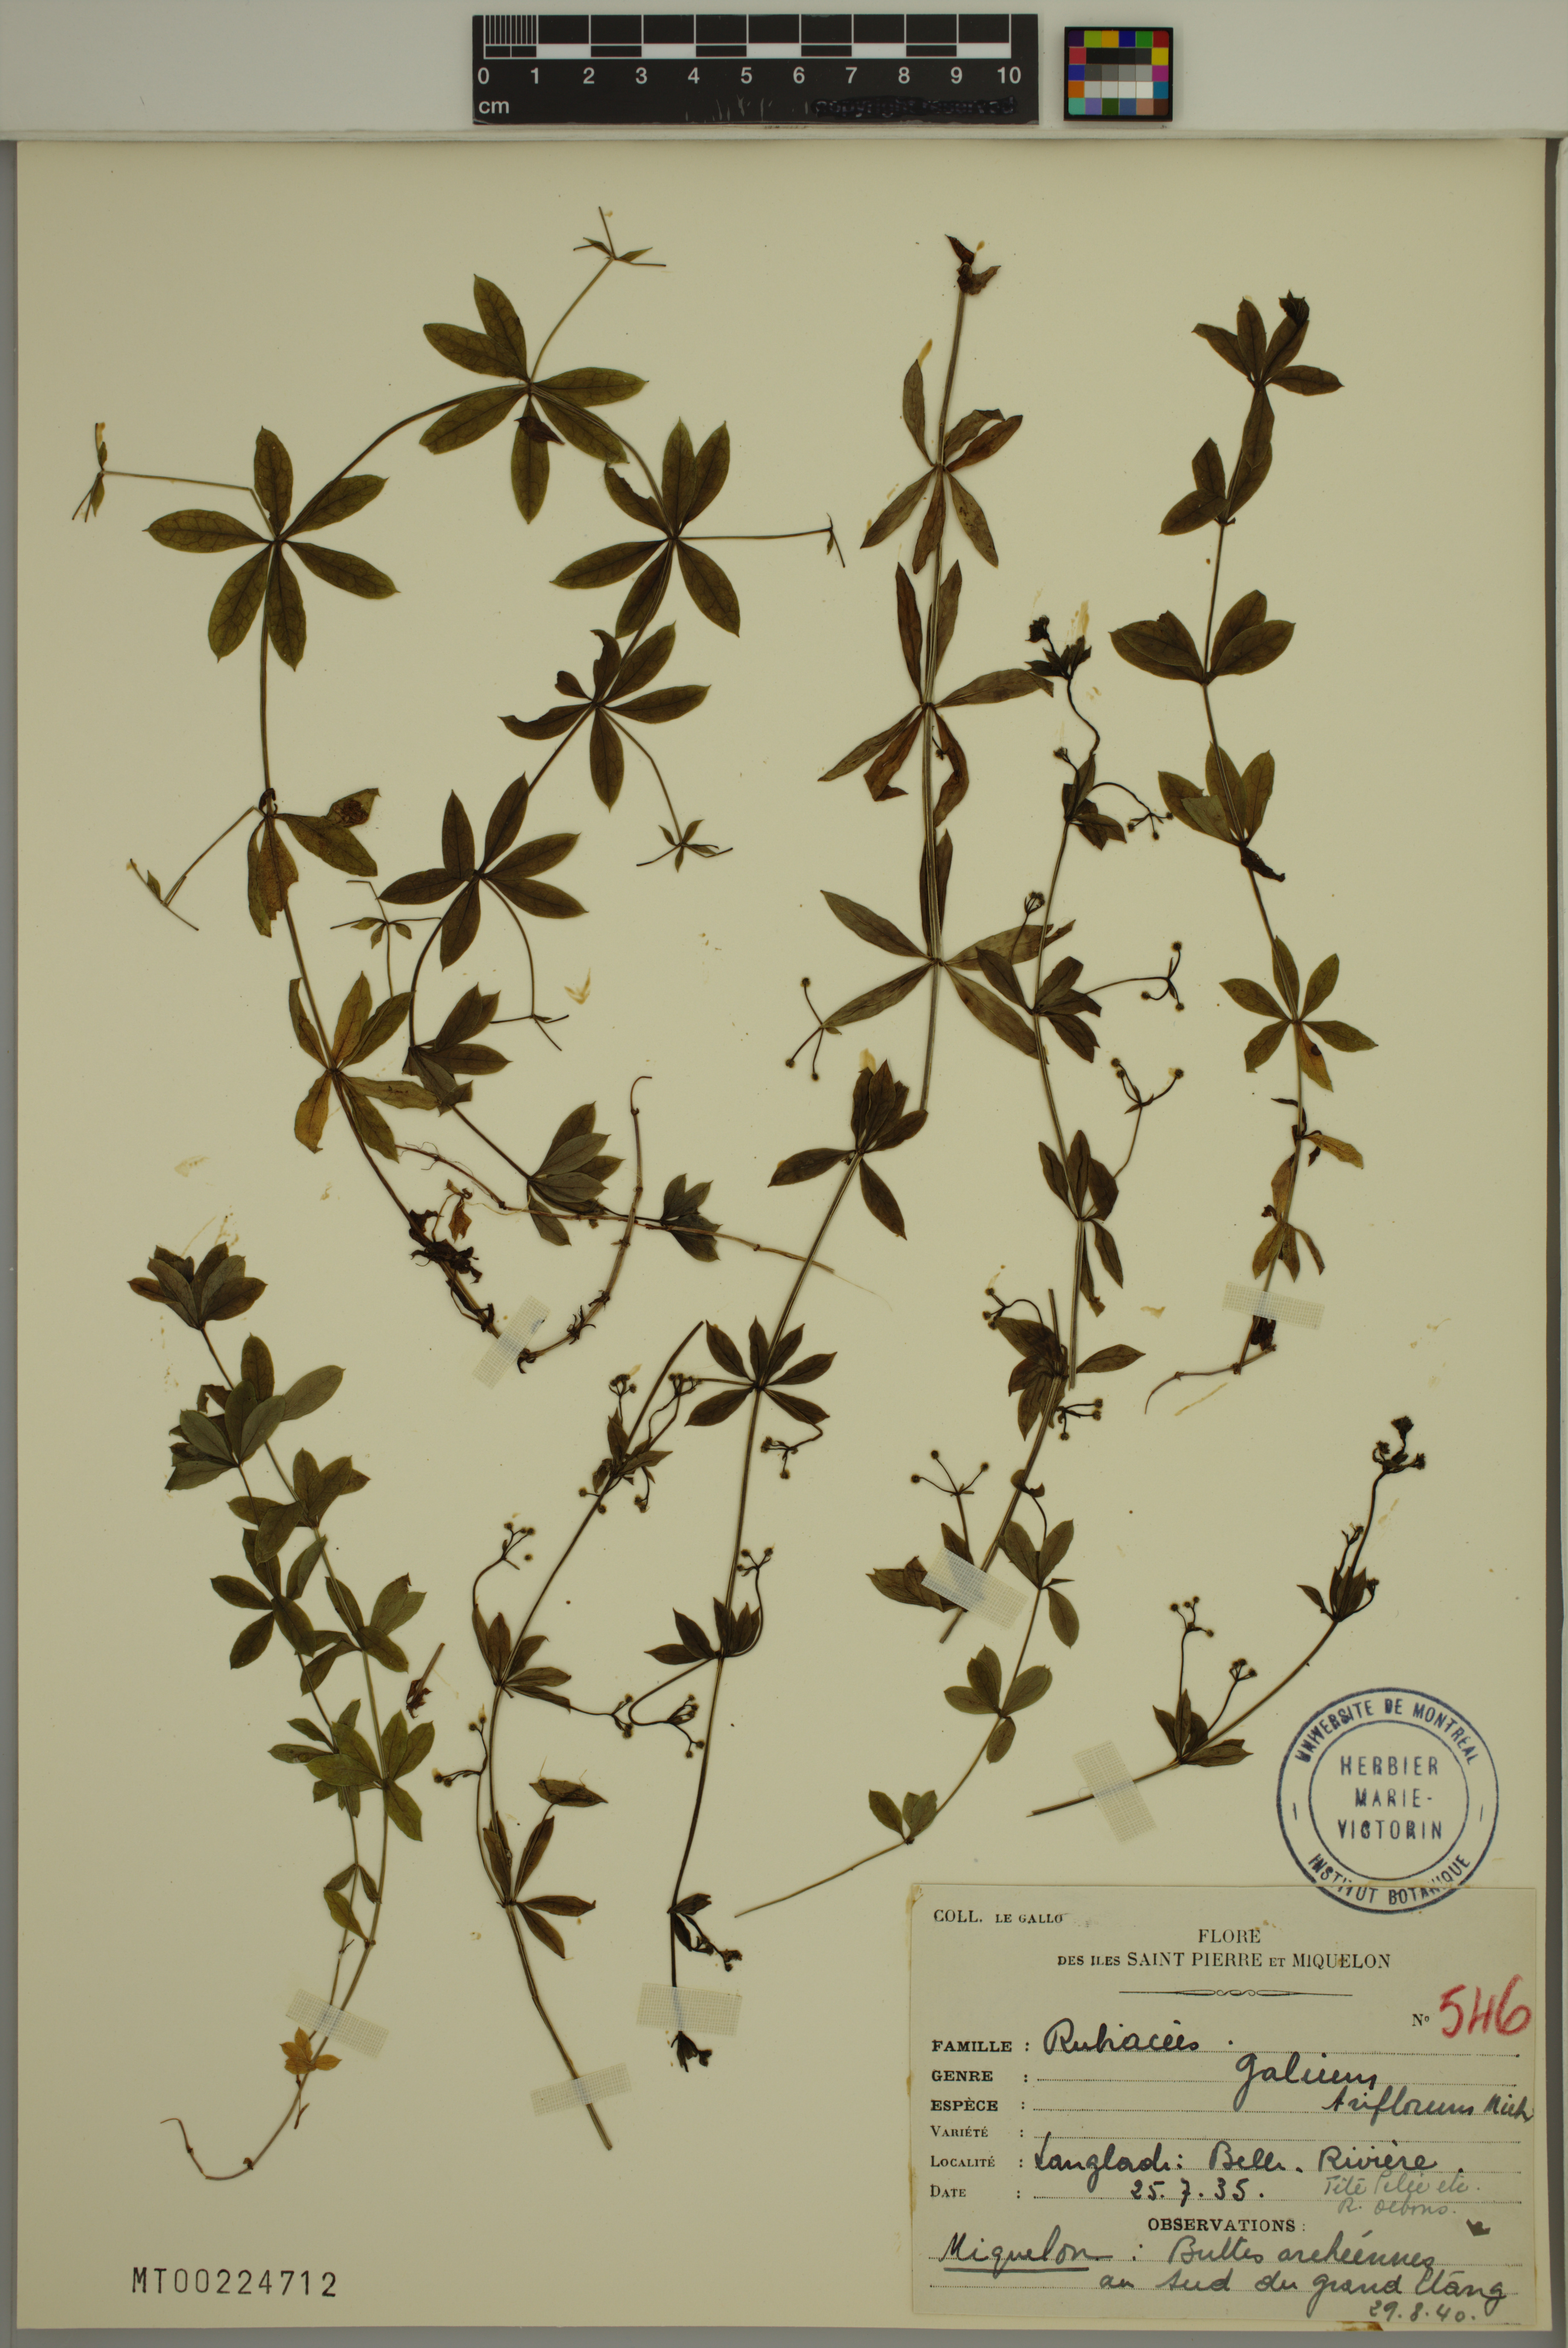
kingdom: Plantae
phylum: Tracheophyta
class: Magnoliopsida
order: Gentianales
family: Rubiaceae
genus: Galium
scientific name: Galium triflorum
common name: Fragrant bedstraw
